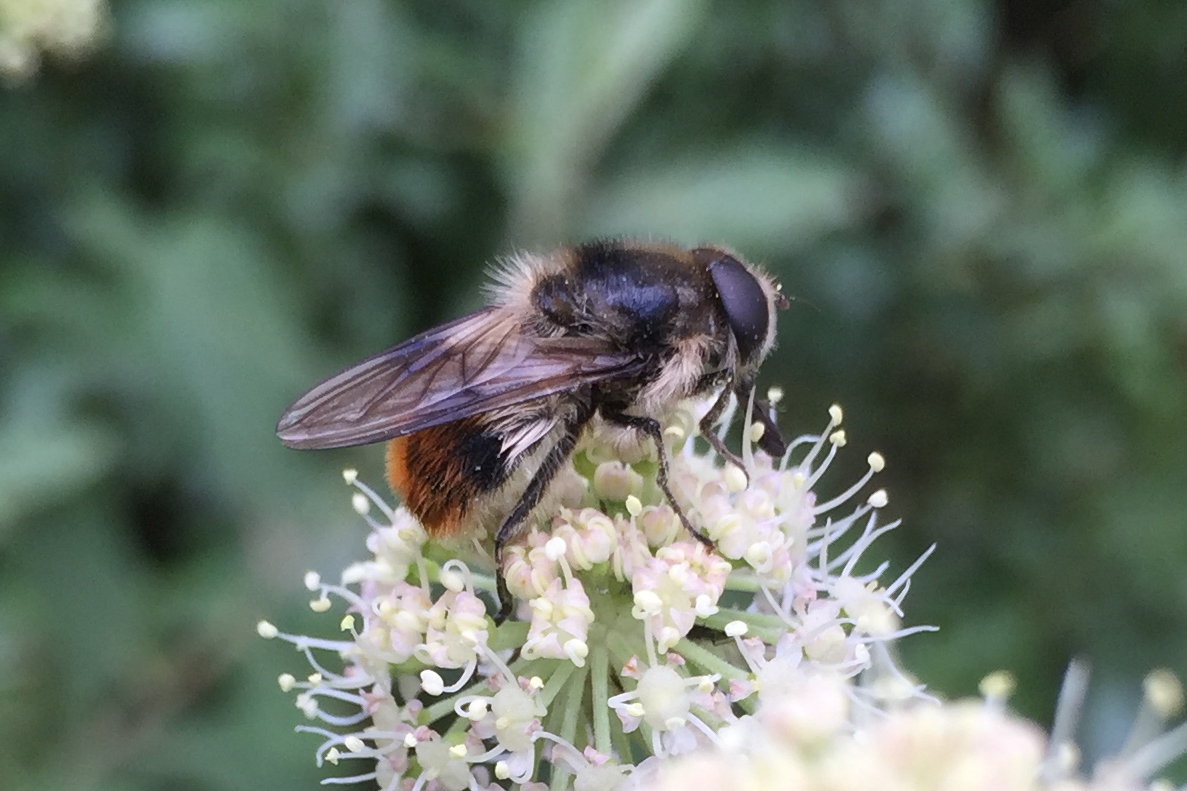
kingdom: Animalia
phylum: Arthropoda
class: Insecta
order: Diptera
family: Syrphidae
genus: Cheilosia
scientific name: Cheilosia illustrata
